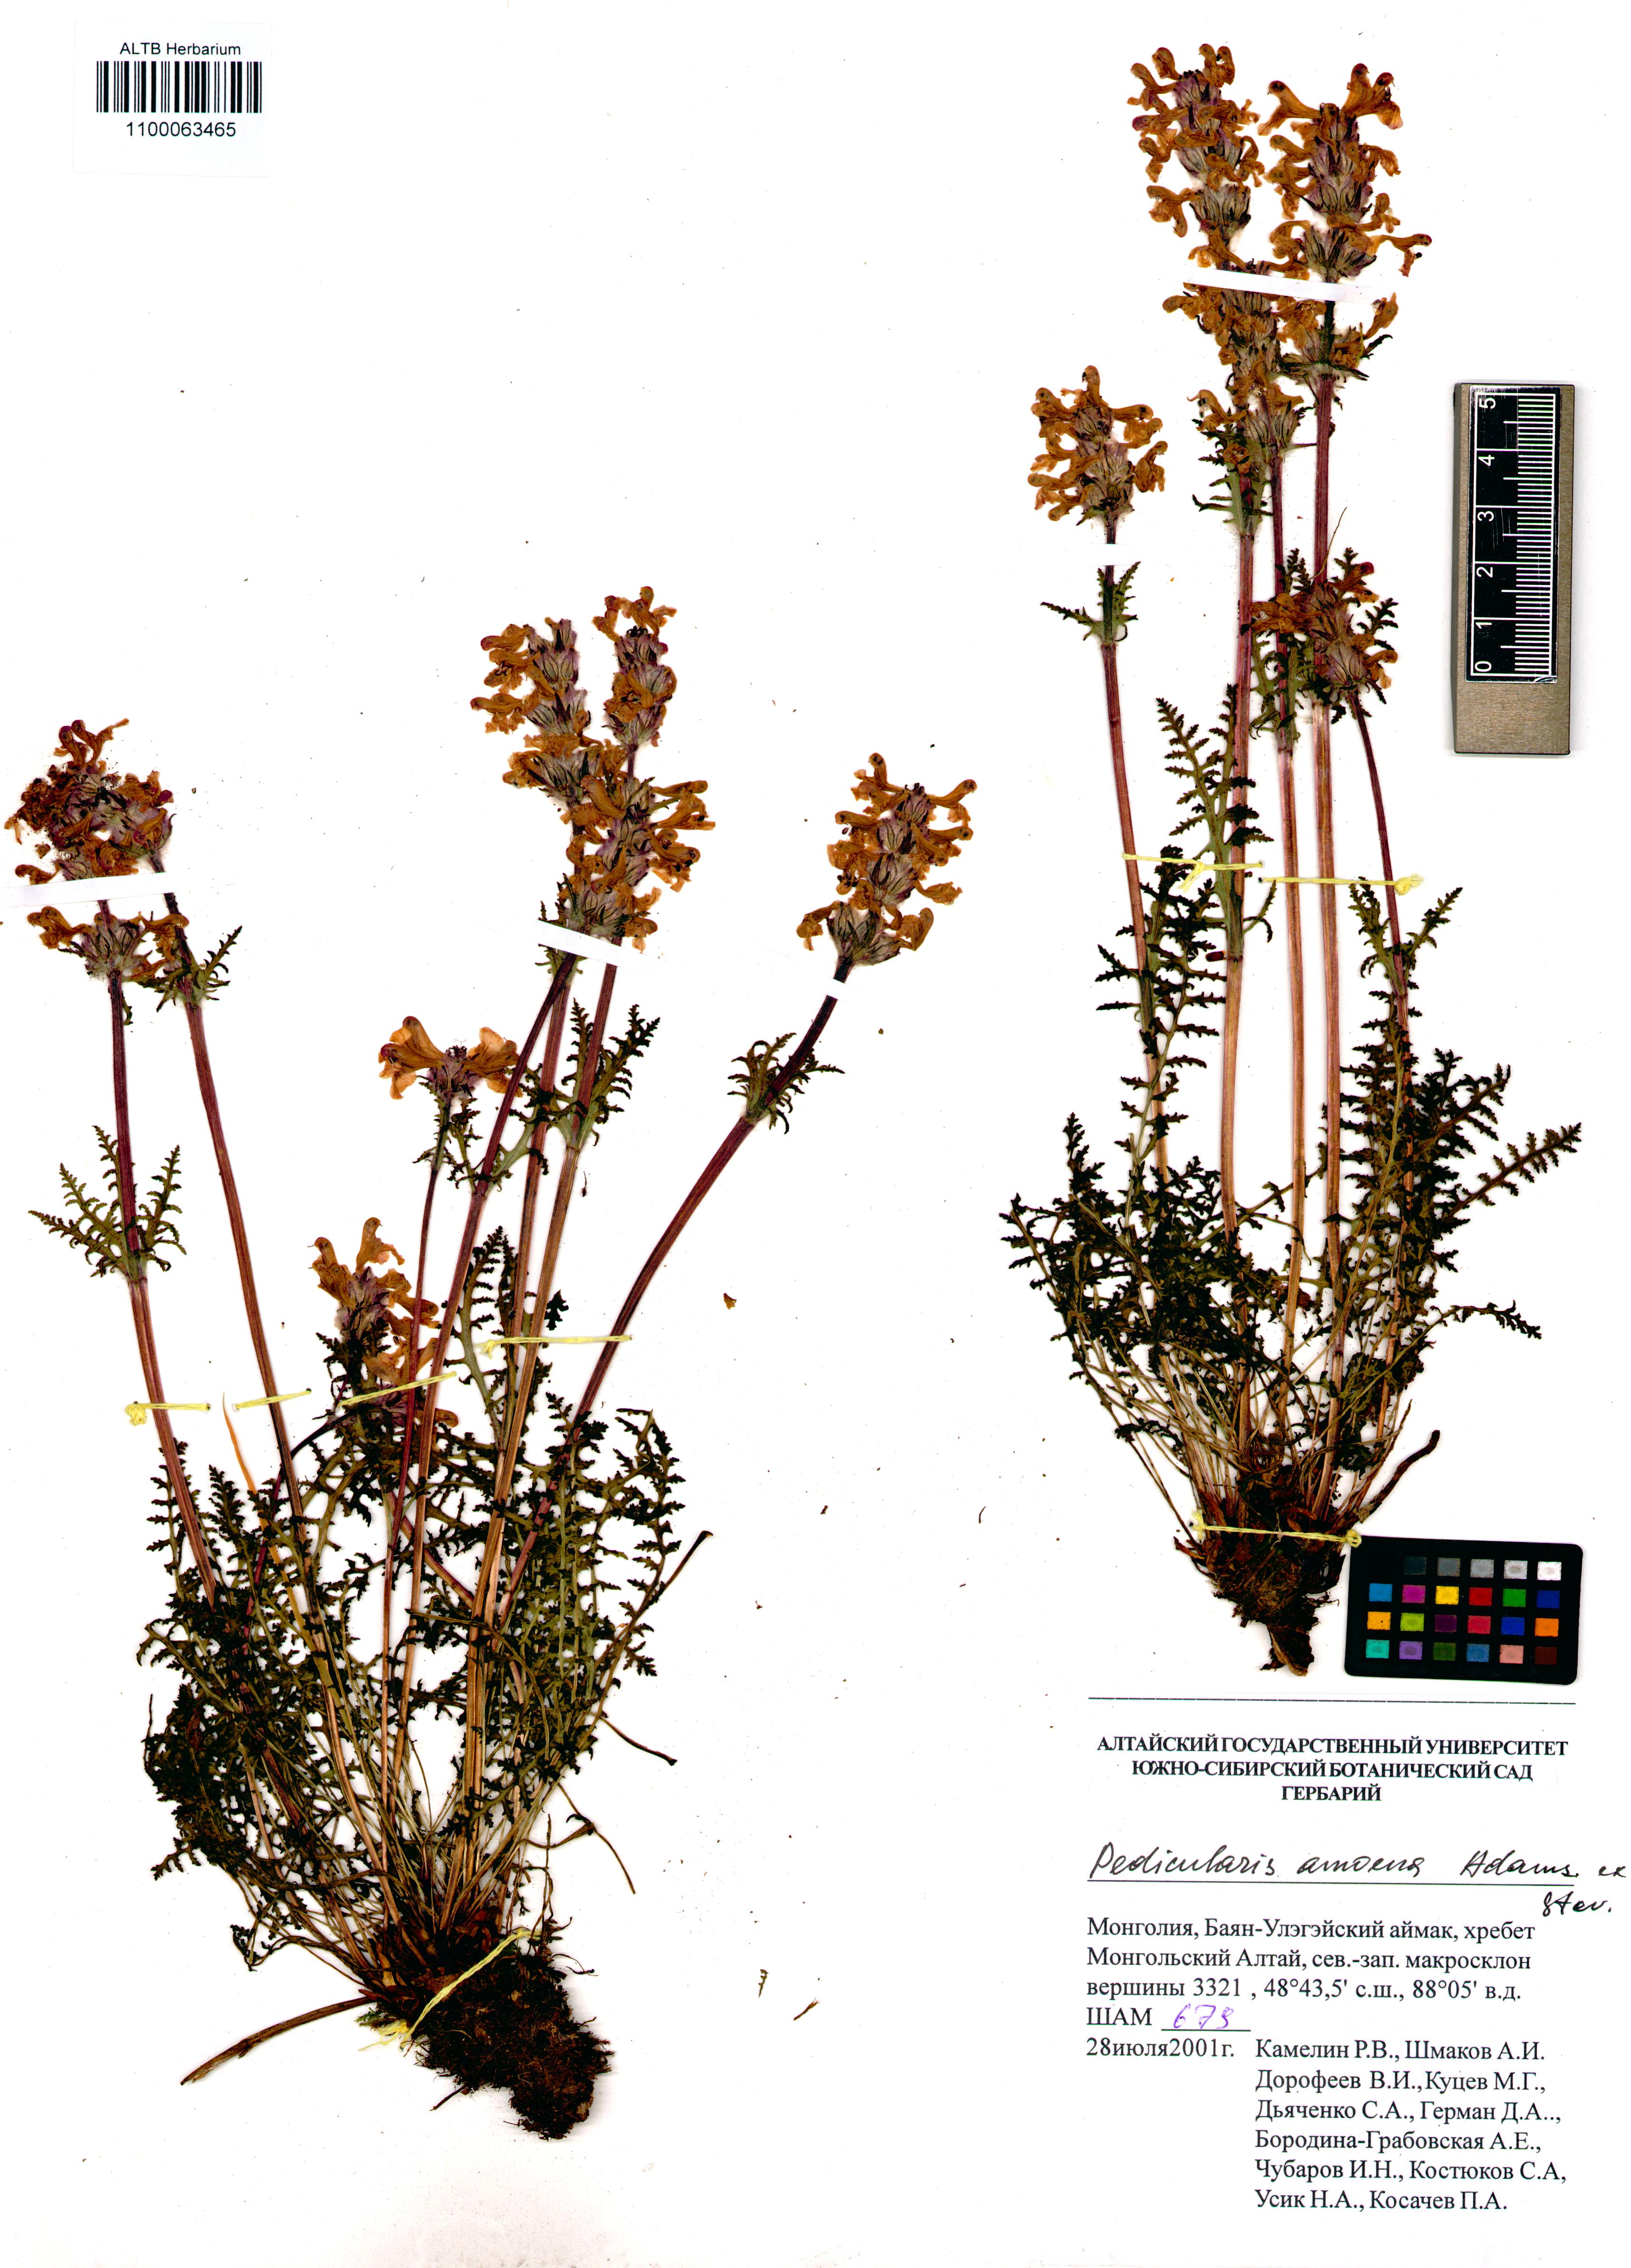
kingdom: Plantae
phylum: Tracheophyta
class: Magnoliopsida
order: Lamiales
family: Orobanchaceae
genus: Pedicularis
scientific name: Pedicularis amoena
